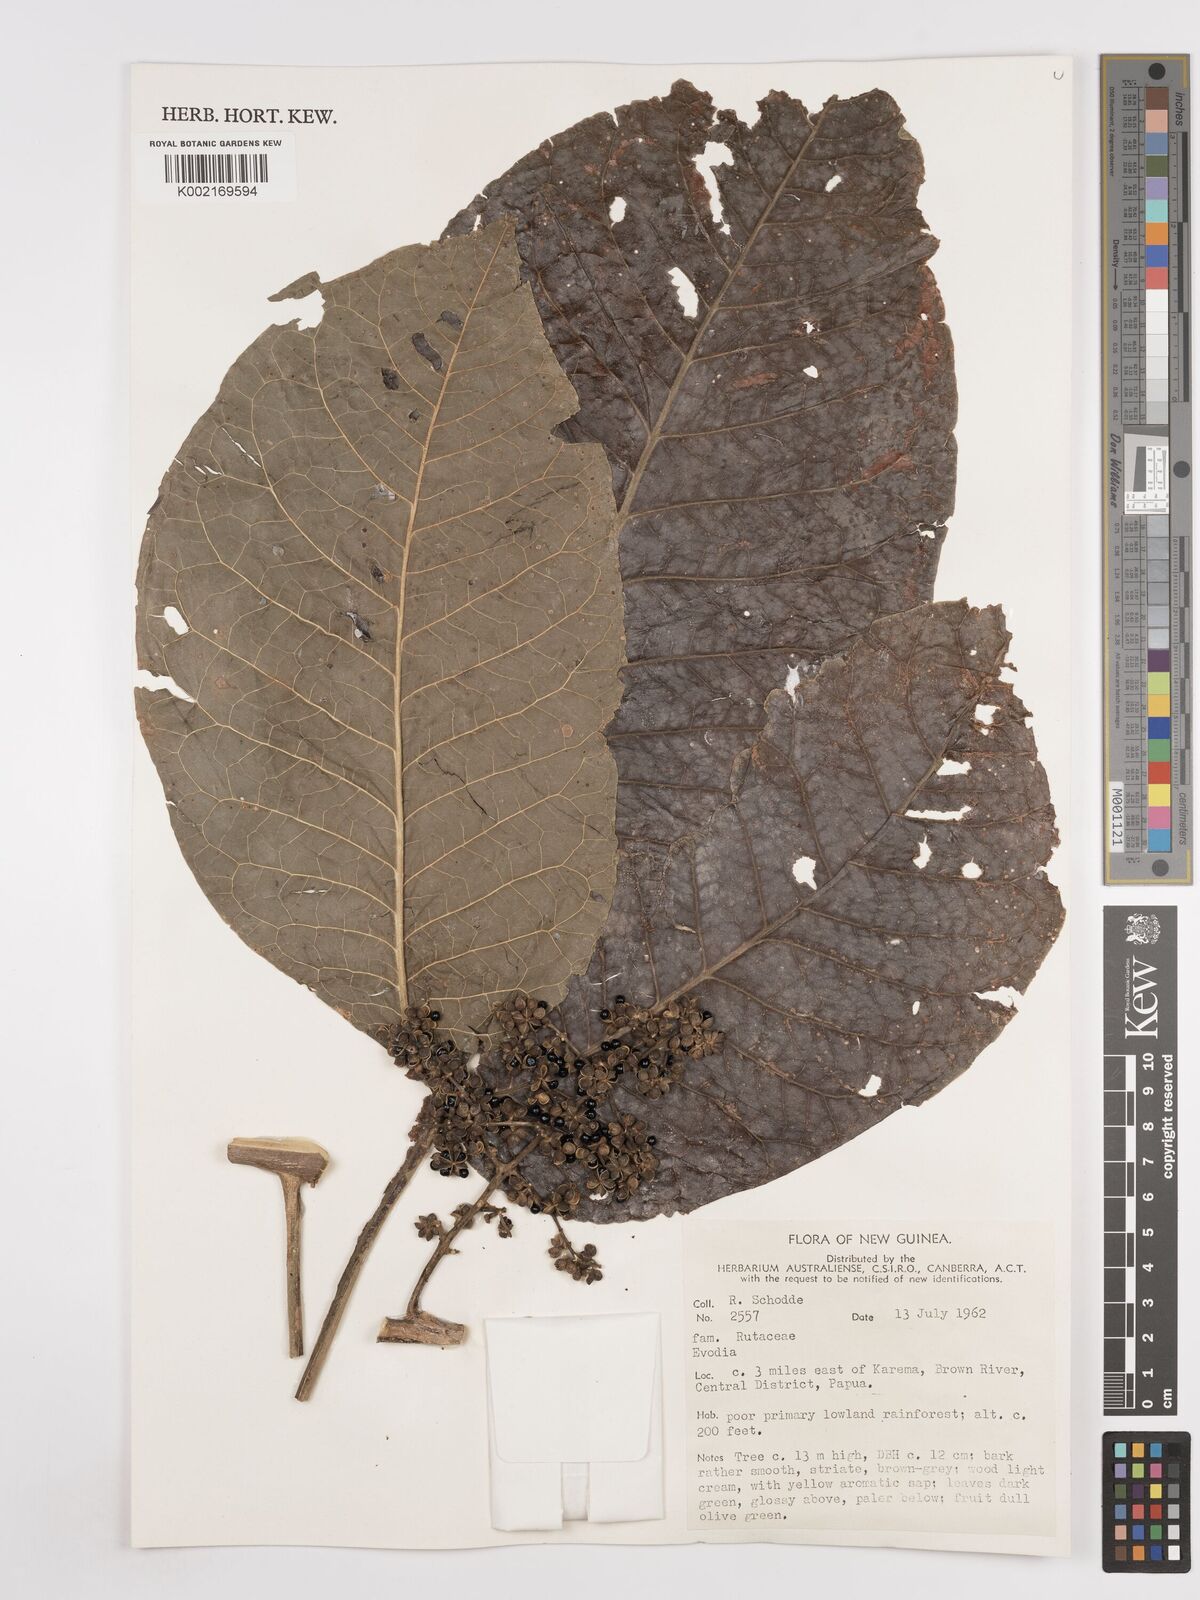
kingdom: Plantae
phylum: Tracheophyta
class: Magnoliopsida
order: Sapindales
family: Rutaceae
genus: Euodia
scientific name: Euodia
